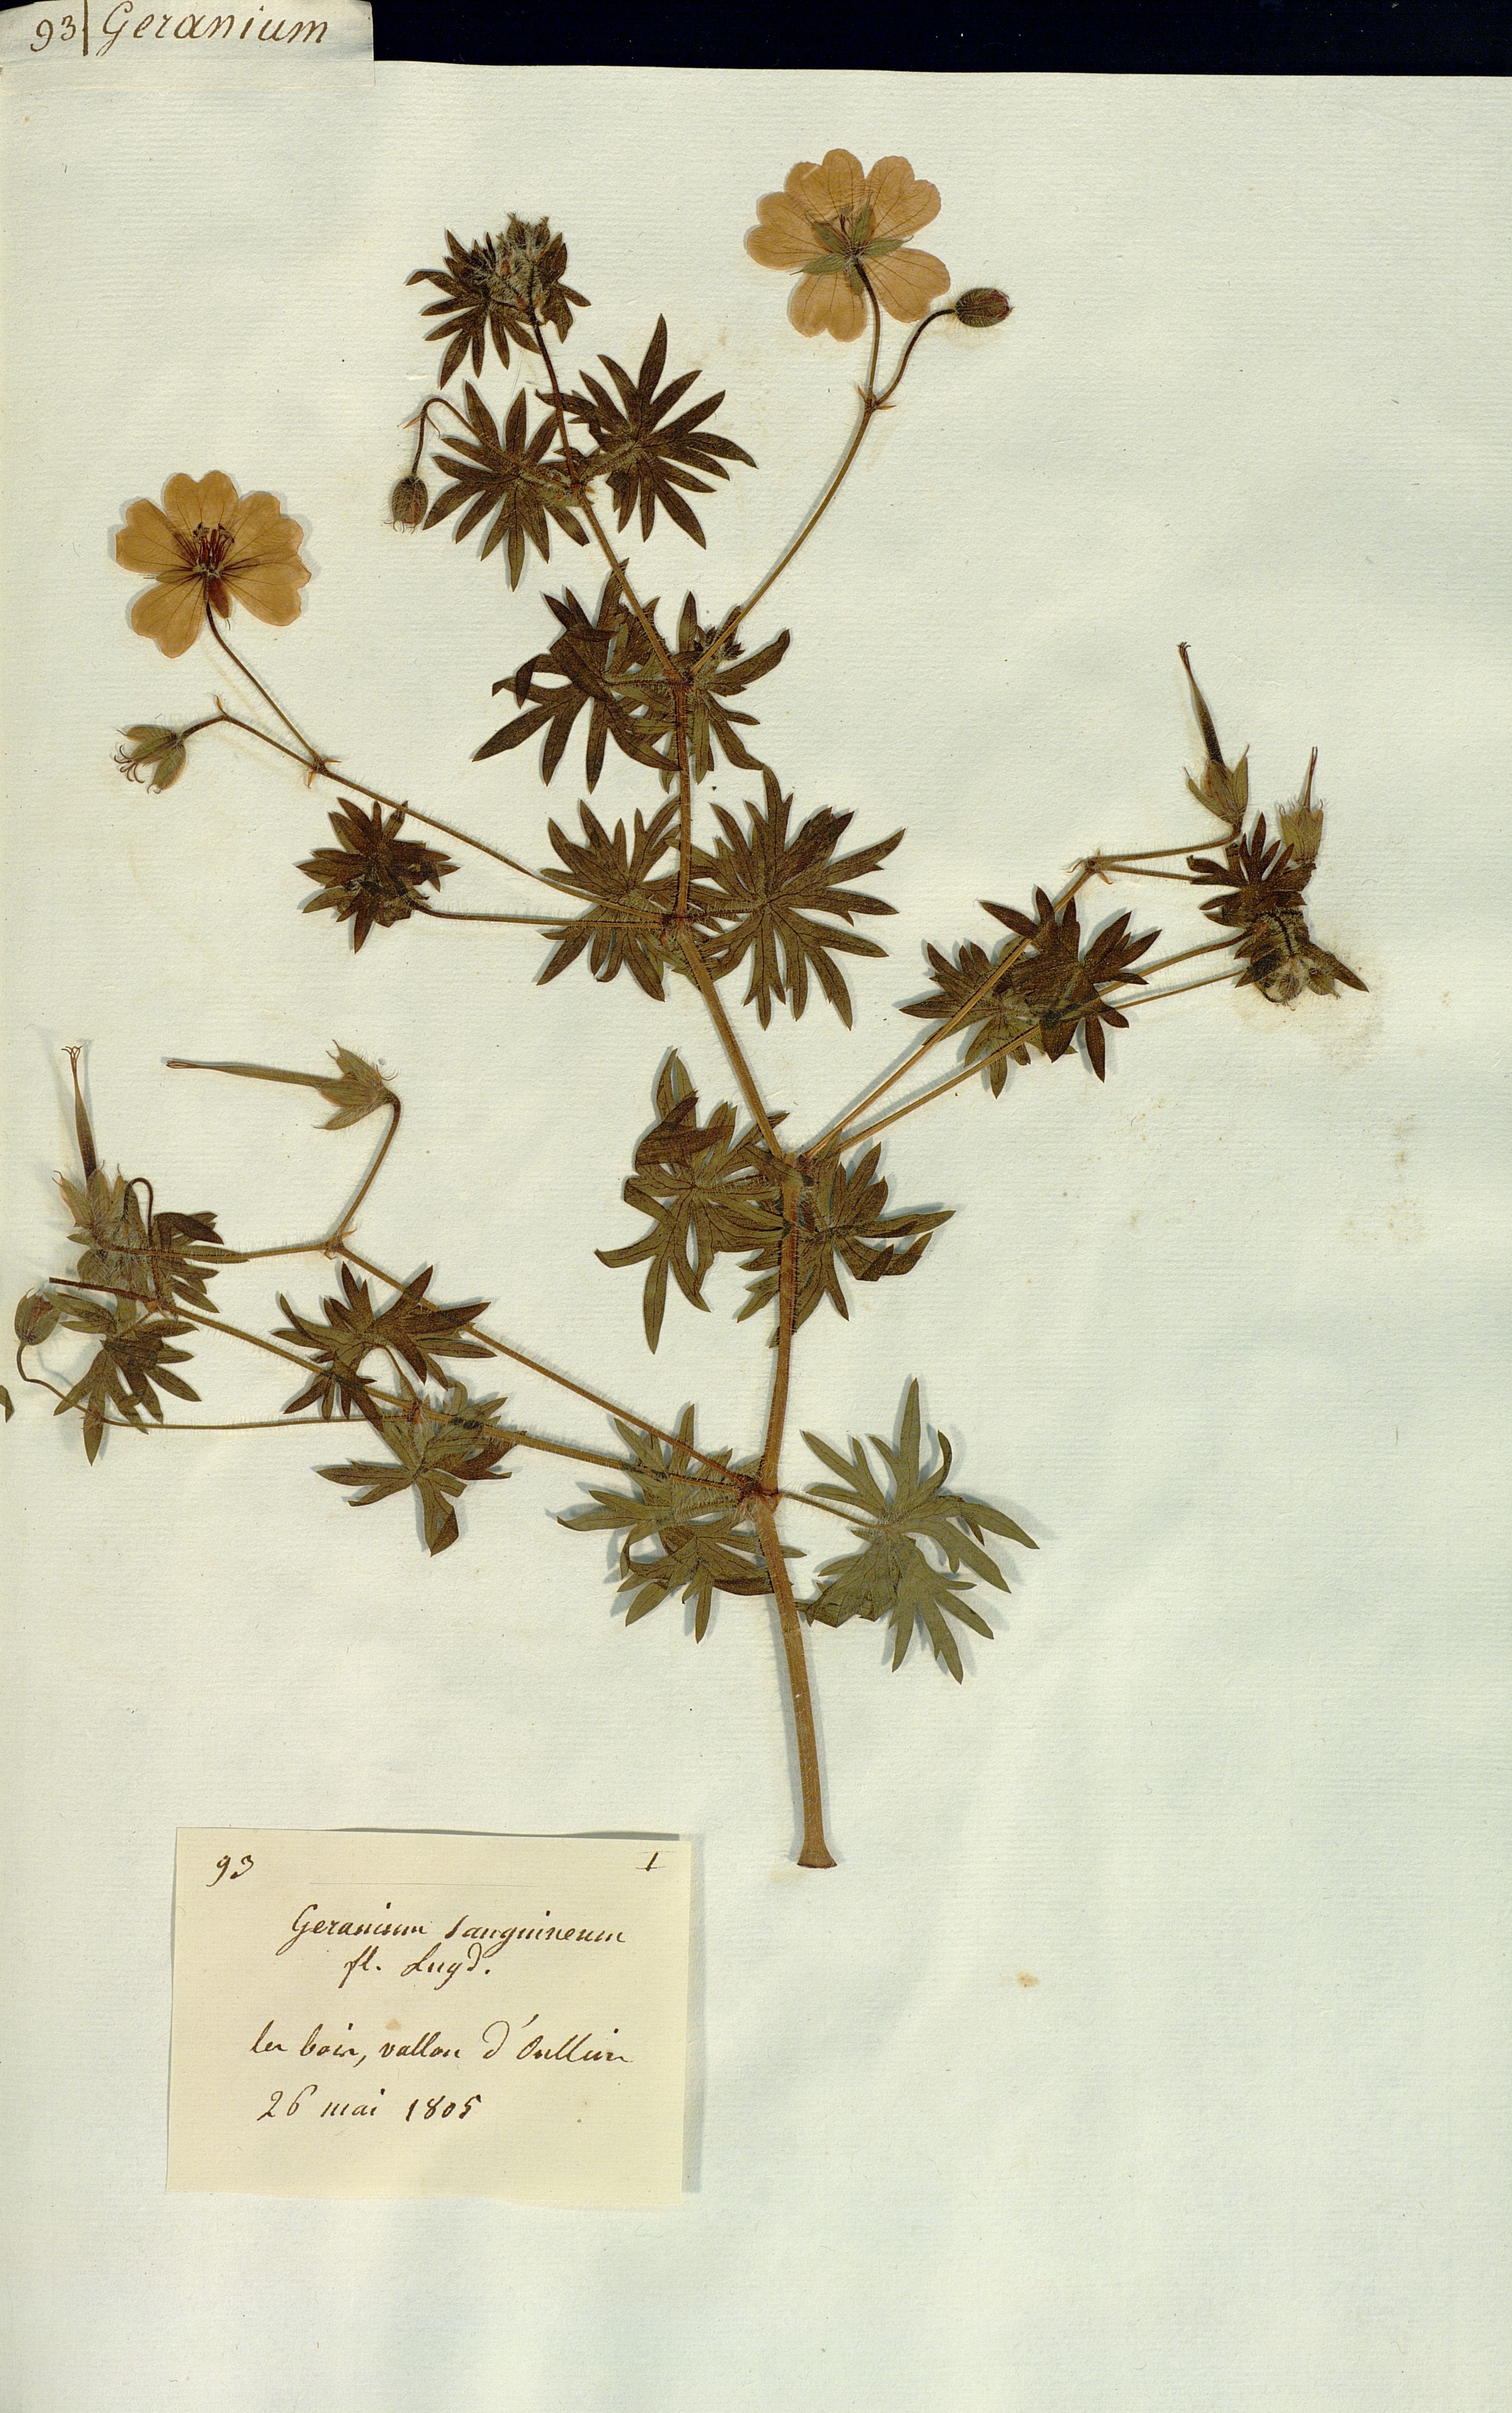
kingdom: Plantae
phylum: Tracheophyta
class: Magnoliopsida
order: Geraniales
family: Geraniaceae
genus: Geranium
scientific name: Geranium sanguineum
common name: Bloody crane's-bill
